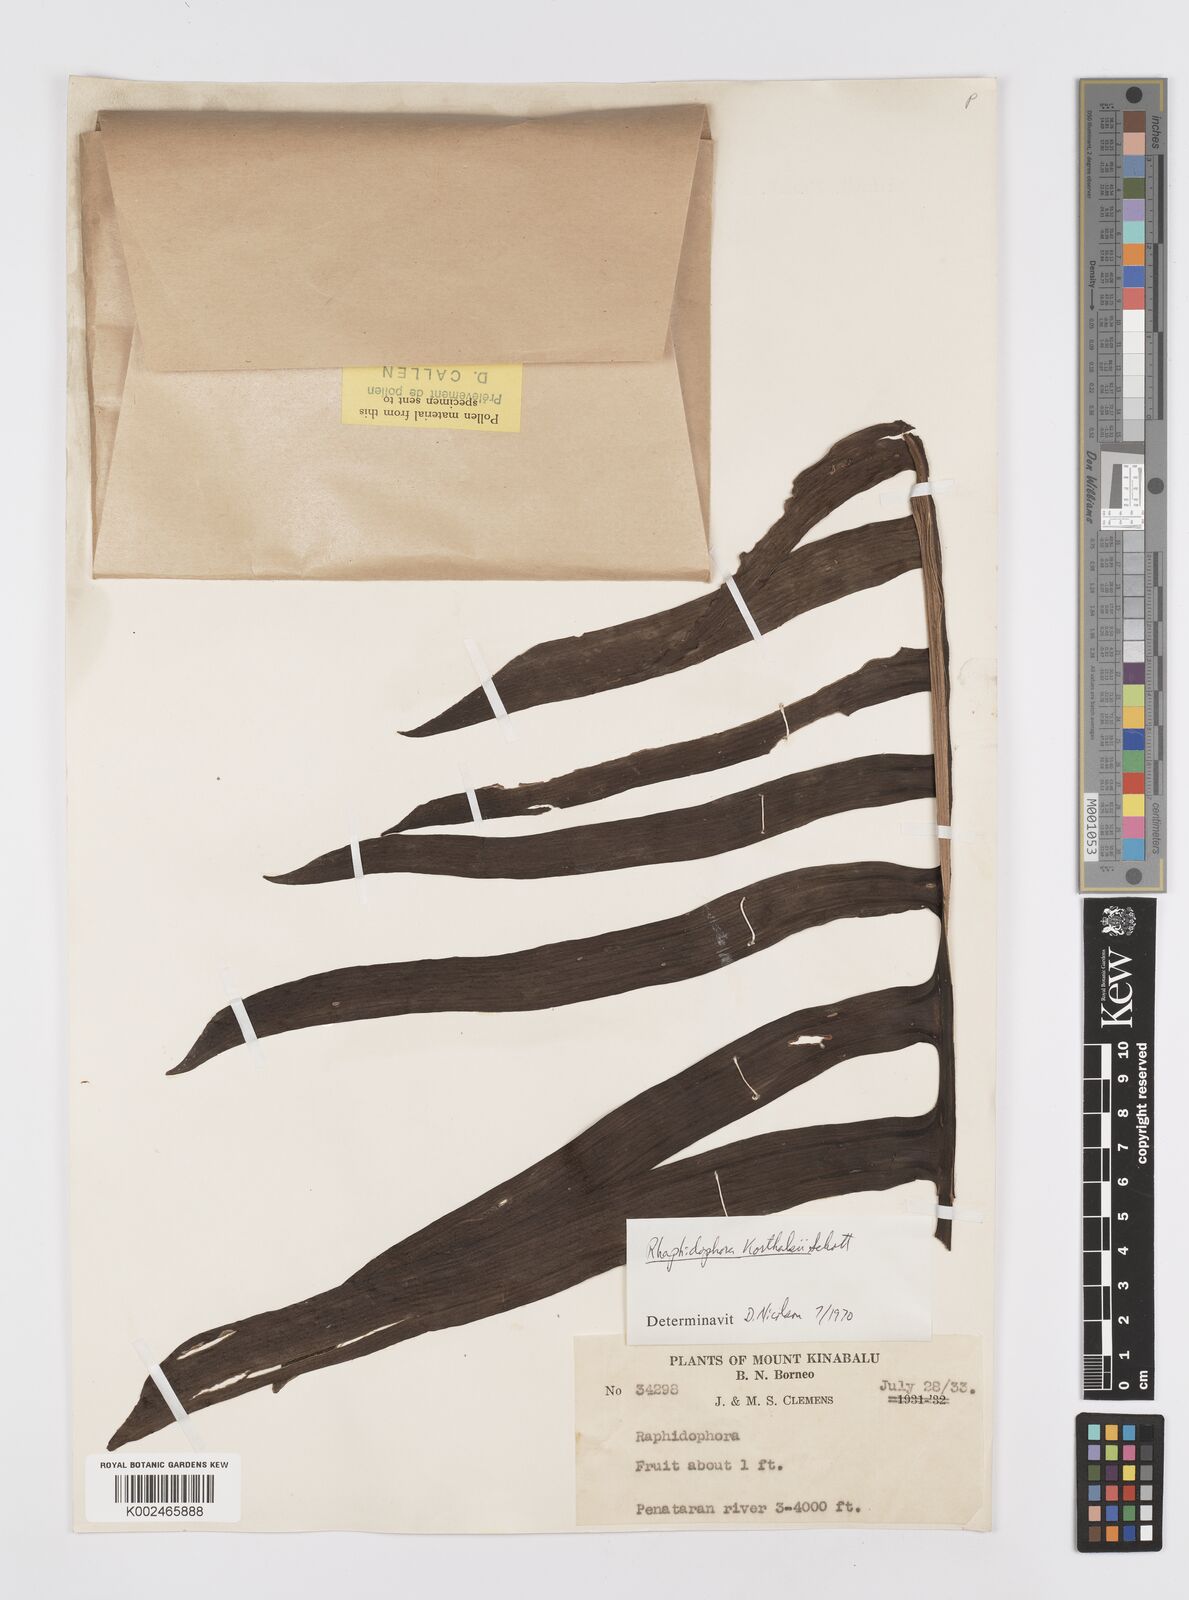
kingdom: Plantae
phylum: Tracheophyta
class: Liliopsida
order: Alismatales
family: Araceae
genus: Rhaphidophora
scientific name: Rhaphidophora korthalsii
